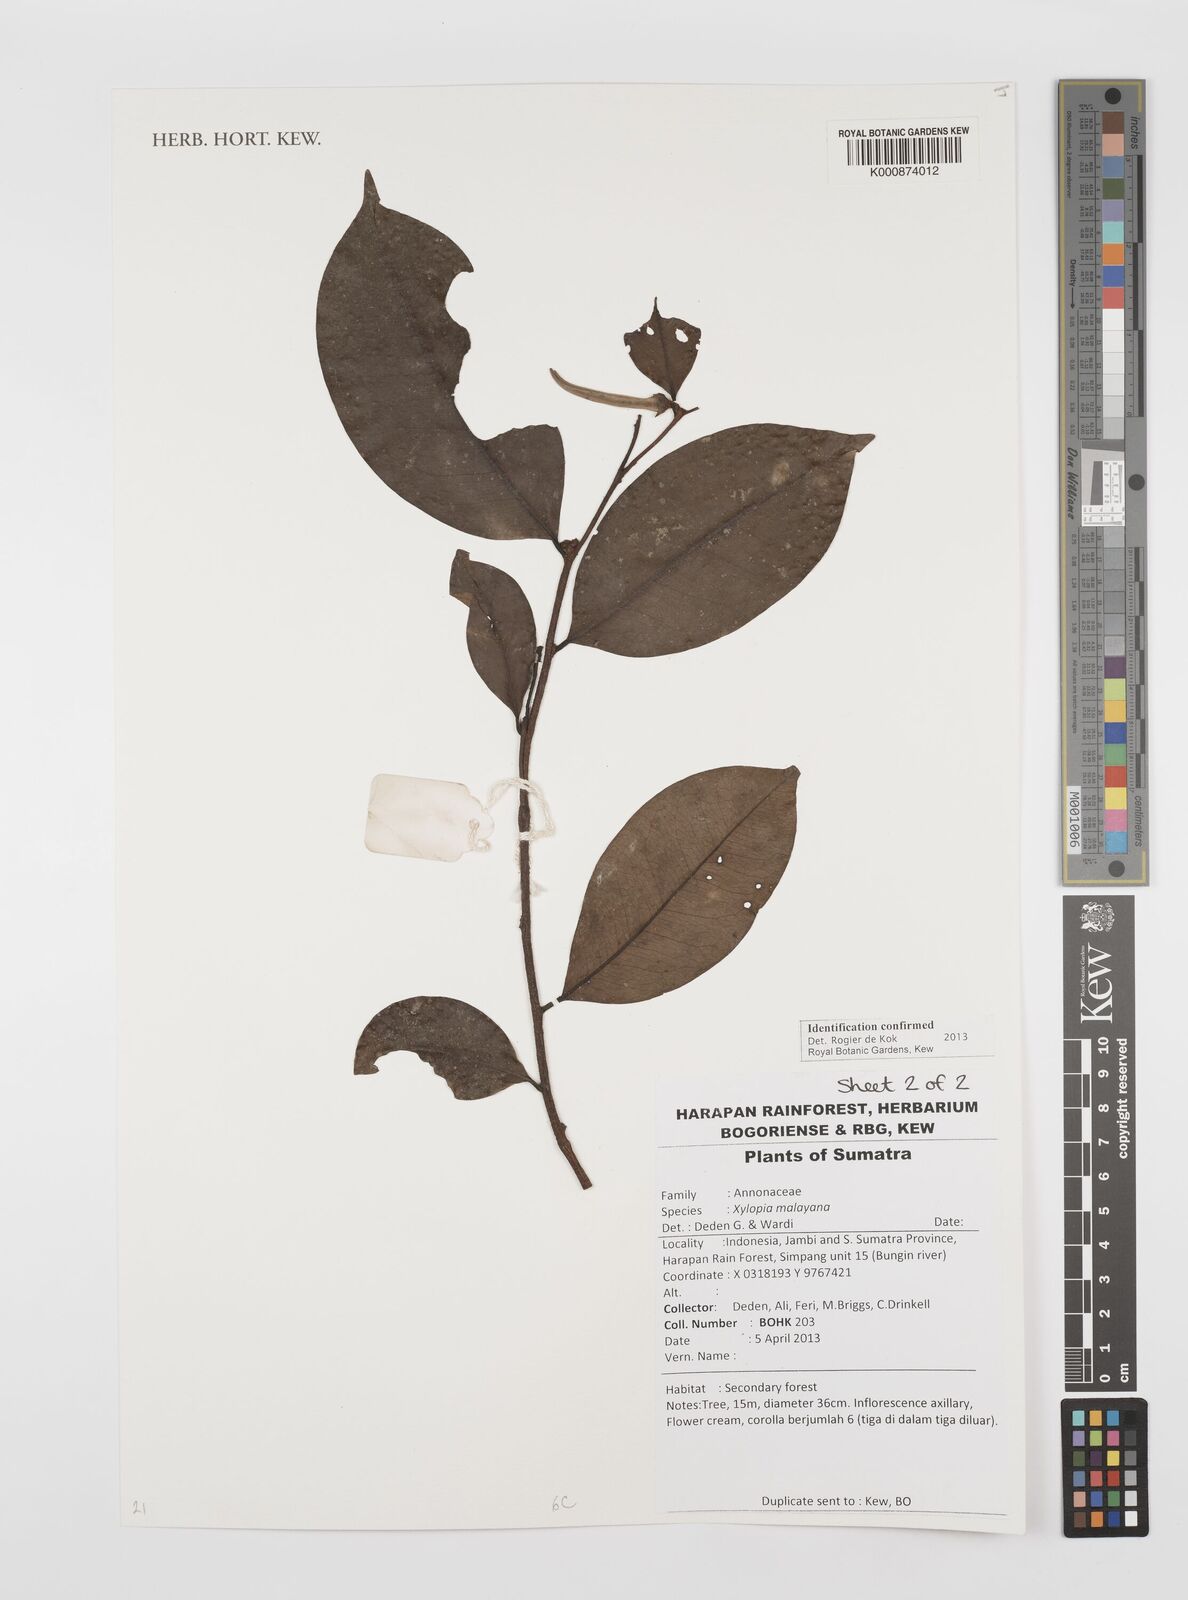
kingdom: Plantae
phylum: Tracheophyta
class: Magnoliopsida
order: Magnoliales
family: Annonaceae
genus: Xylopia
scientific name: Xylopia malayana
